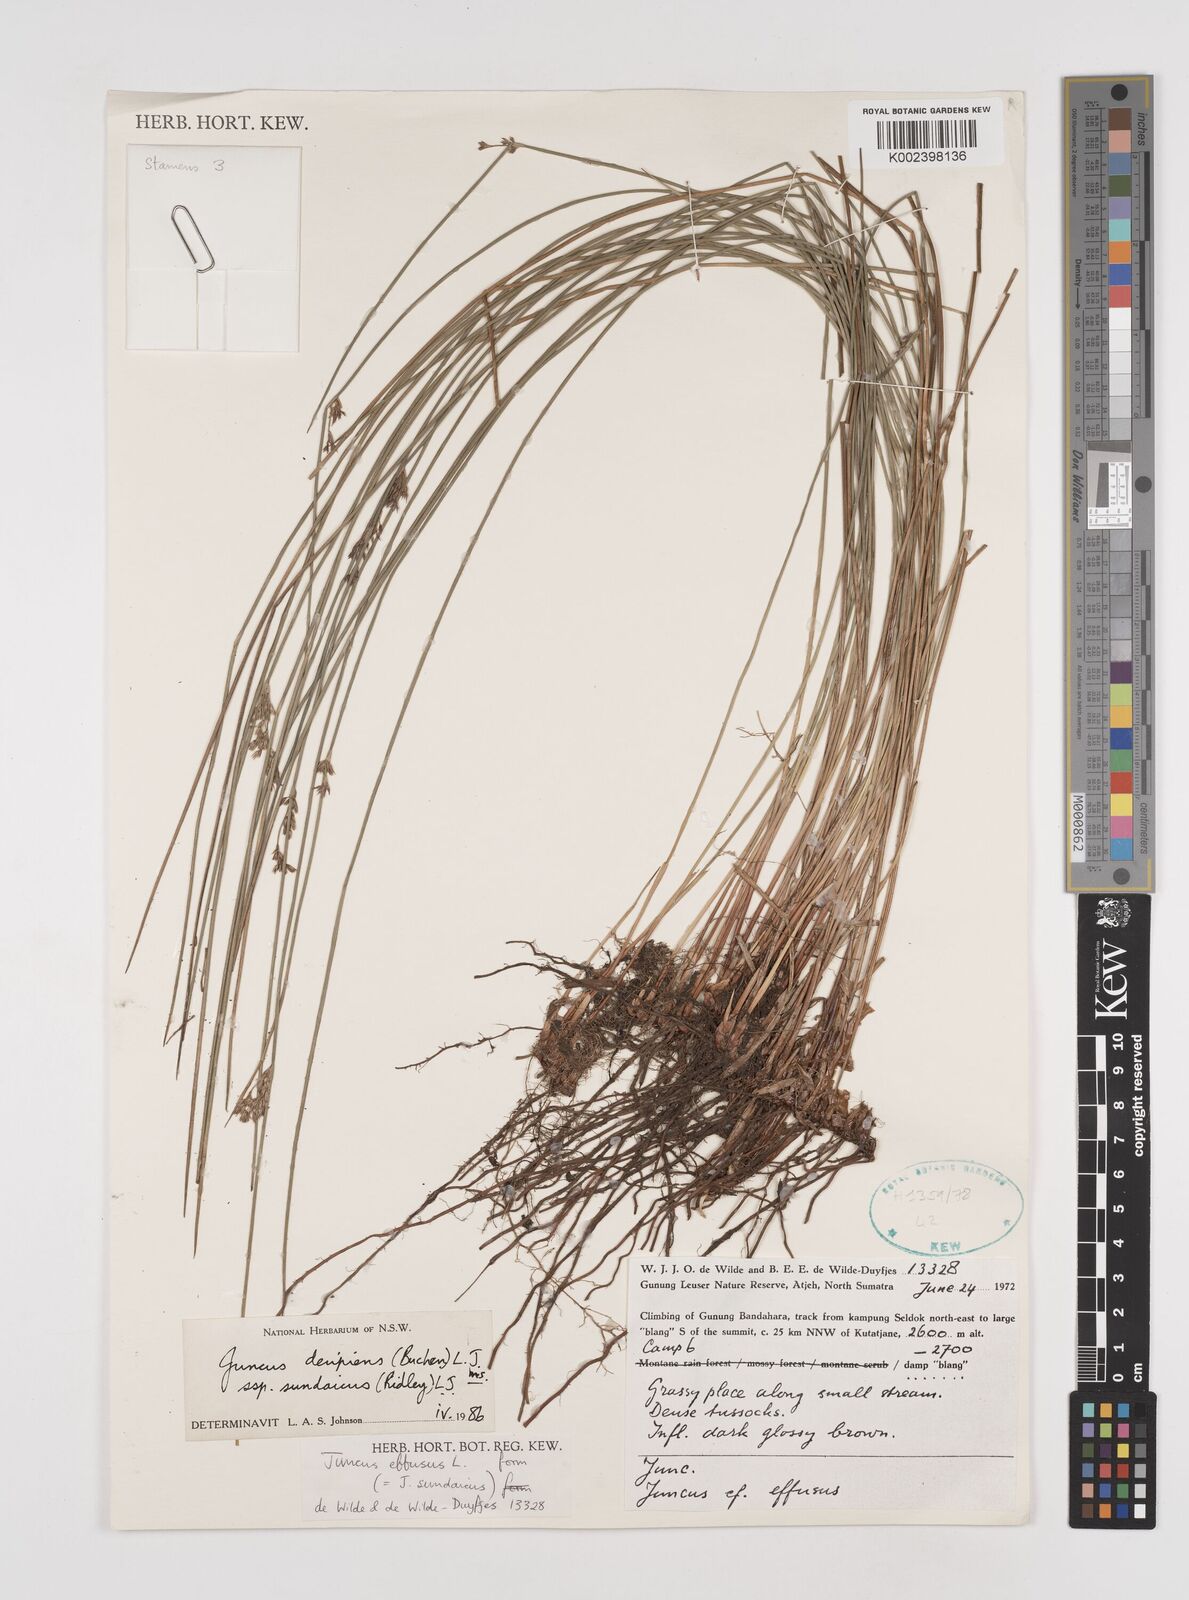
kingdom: Plantae
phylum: Tracheophyta
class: Liliopsida
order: Poales
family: Juncaceae
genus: Juncus
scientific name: Juncus decipiens
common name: Lamp rush
